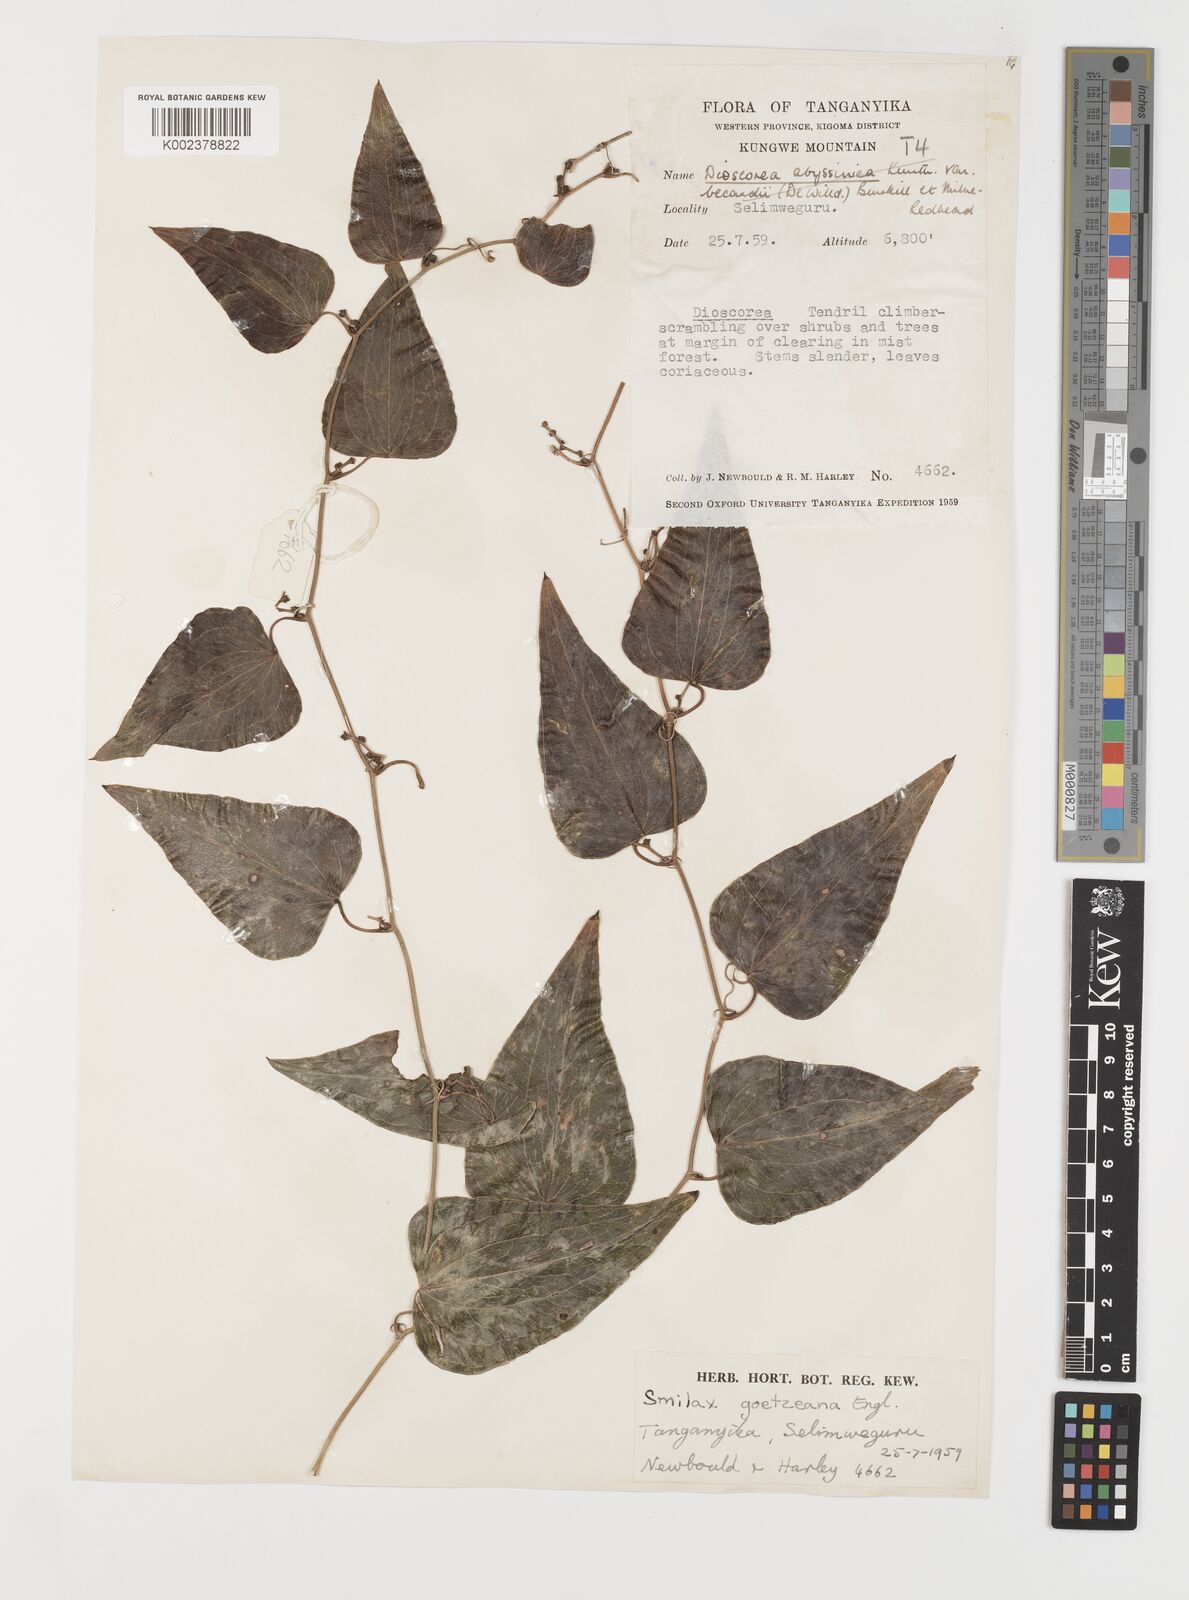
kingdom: Plantae
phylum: Tracheophyta
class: Liliopsida
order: Liliales
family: Smilacaceae
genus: Smilax
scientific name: Smilax aspera
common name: Common smilax
